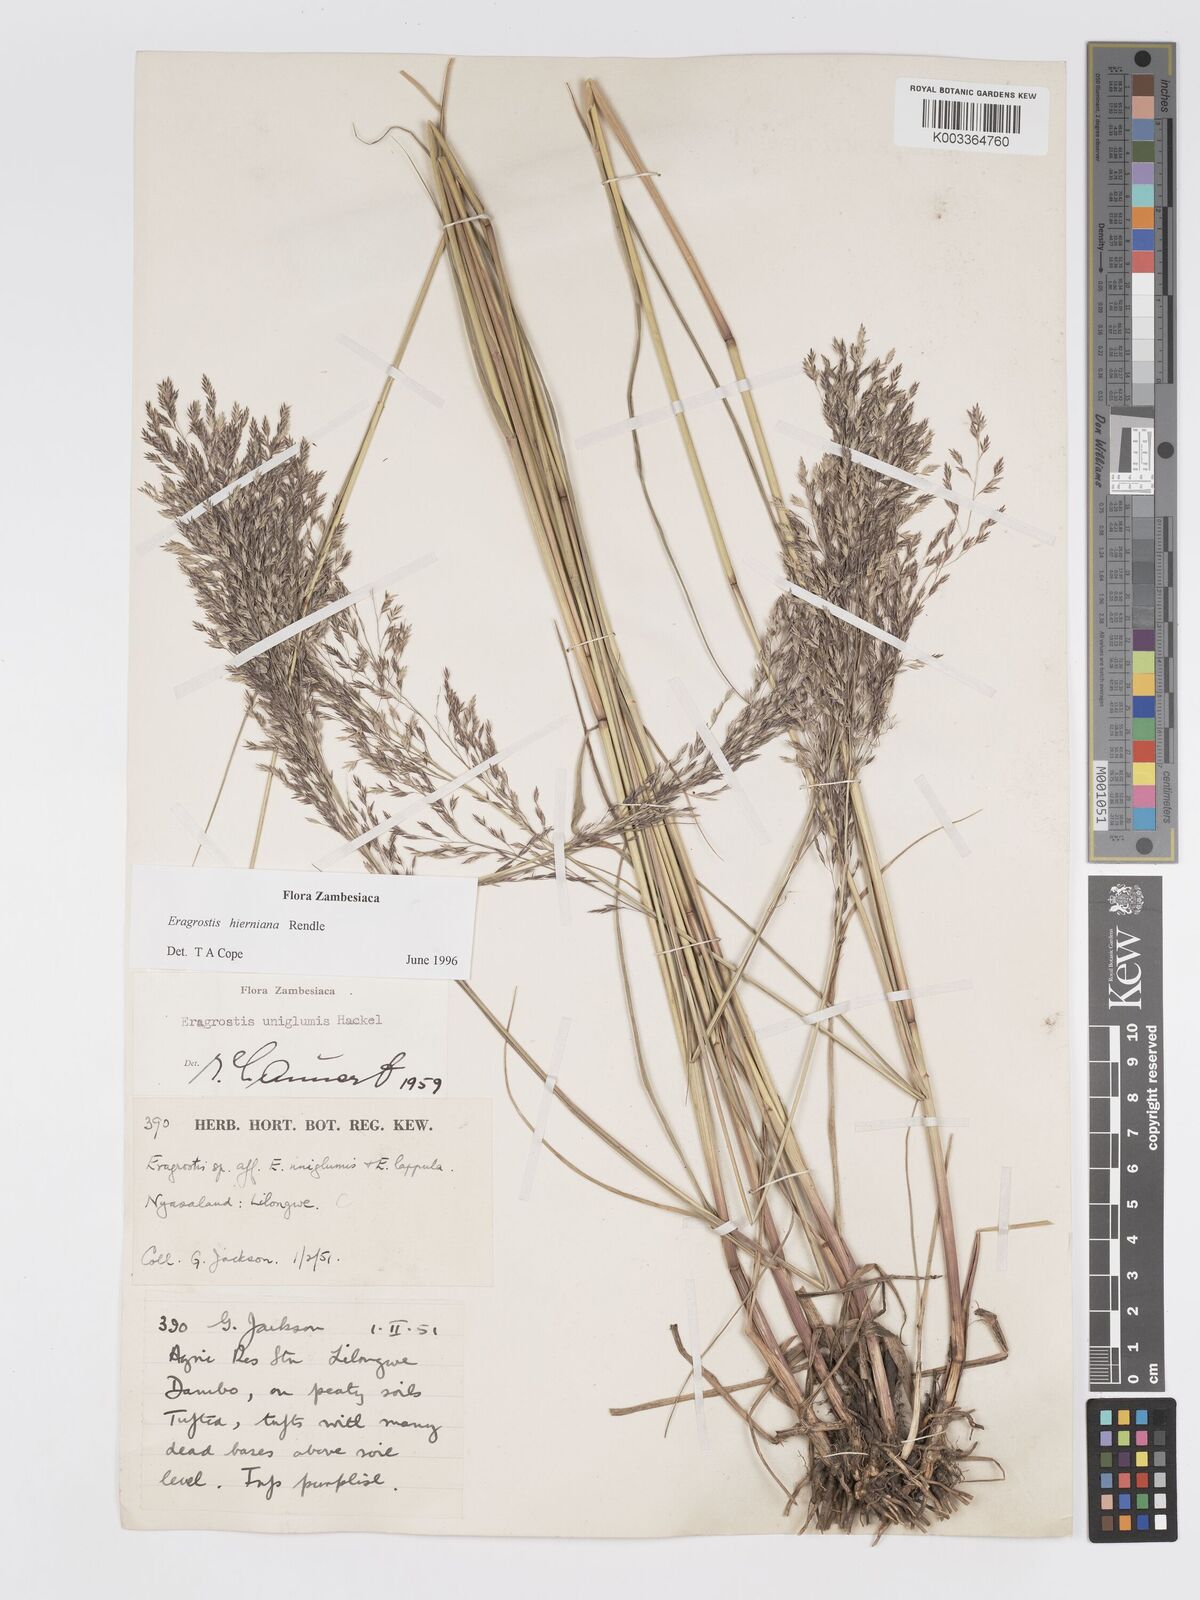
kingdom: Plantae
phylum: Tracheophyta
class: Liliopsida
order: Poales
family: Poaceae
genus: Eragrostis
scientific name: Eragrostis hierniana
